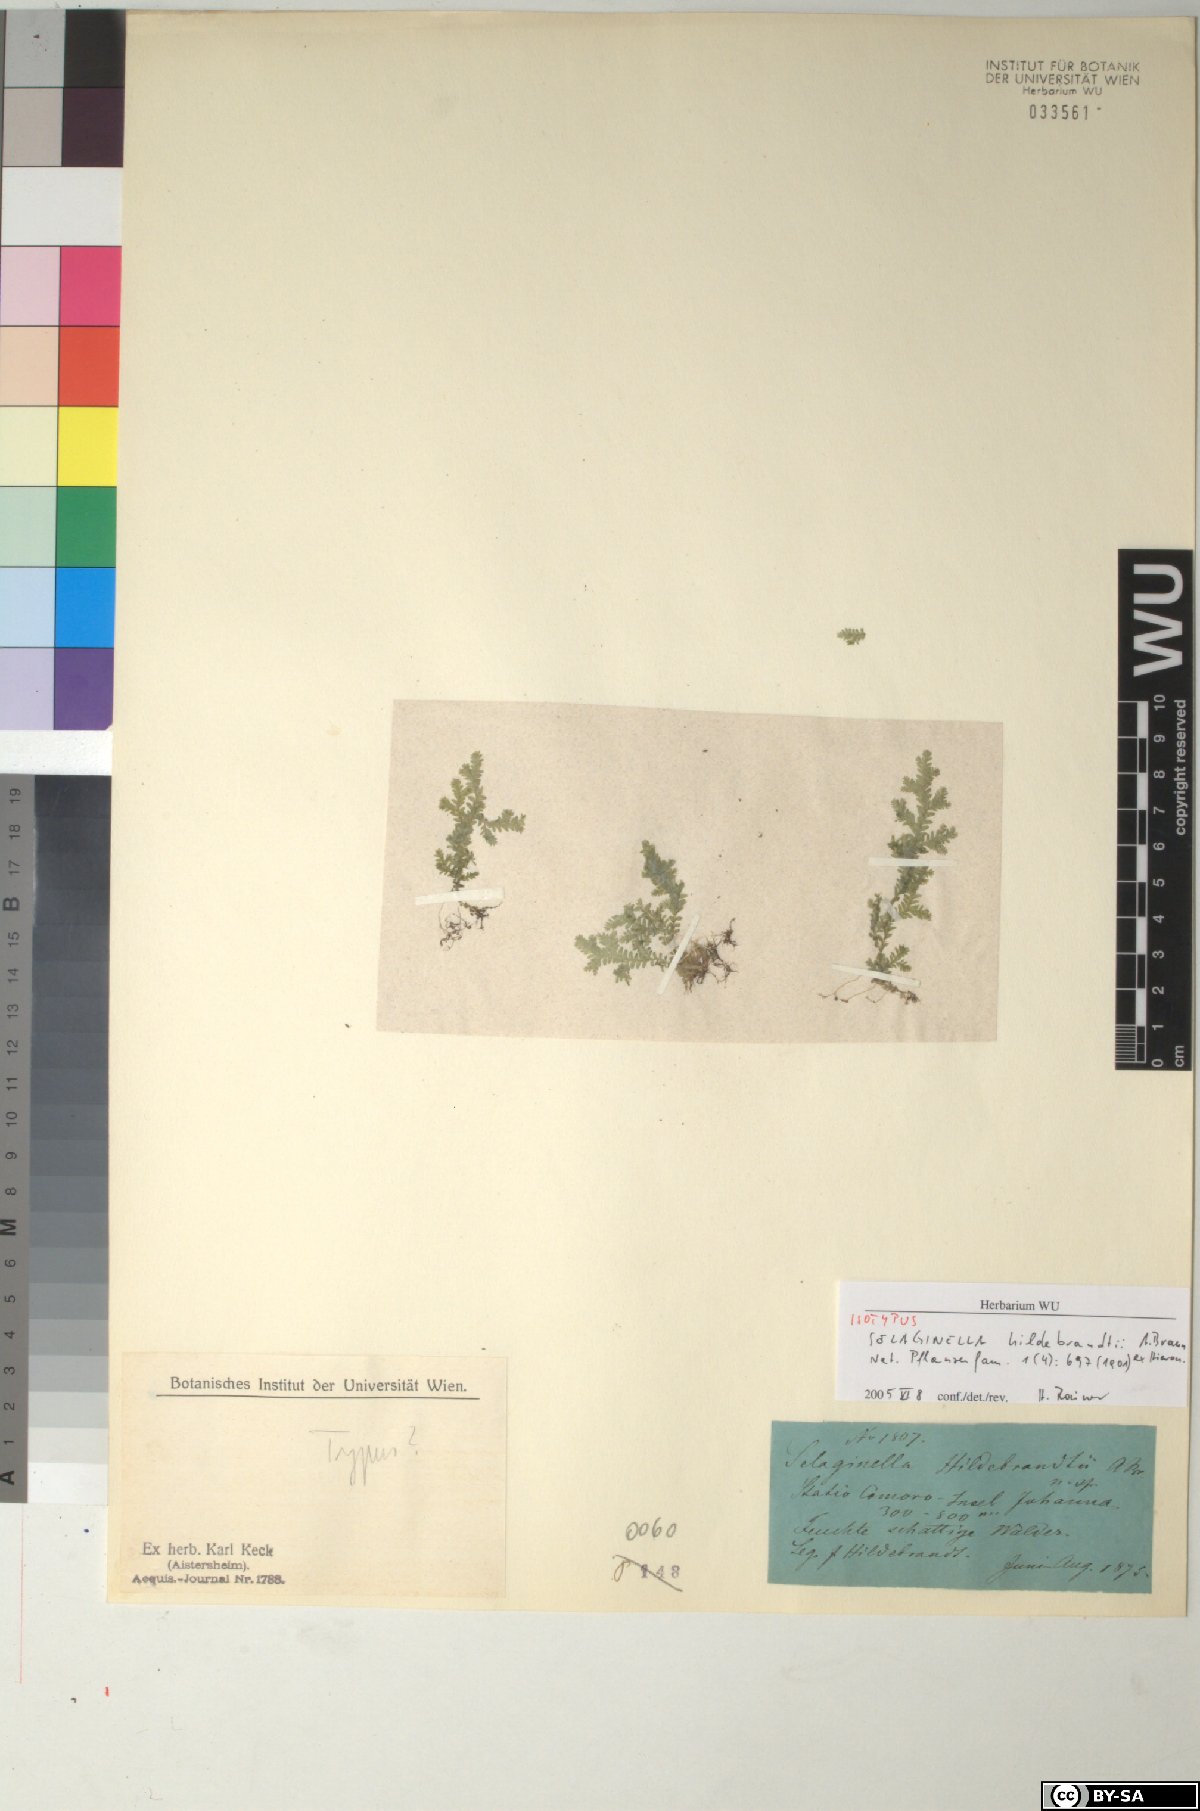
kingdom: Plantae
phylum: Tracheophyta
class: Lycopodiopsida
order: Selaginellales
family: Selaginellaceae
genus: Selaginella
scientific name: Selaginella hildebrandtii
